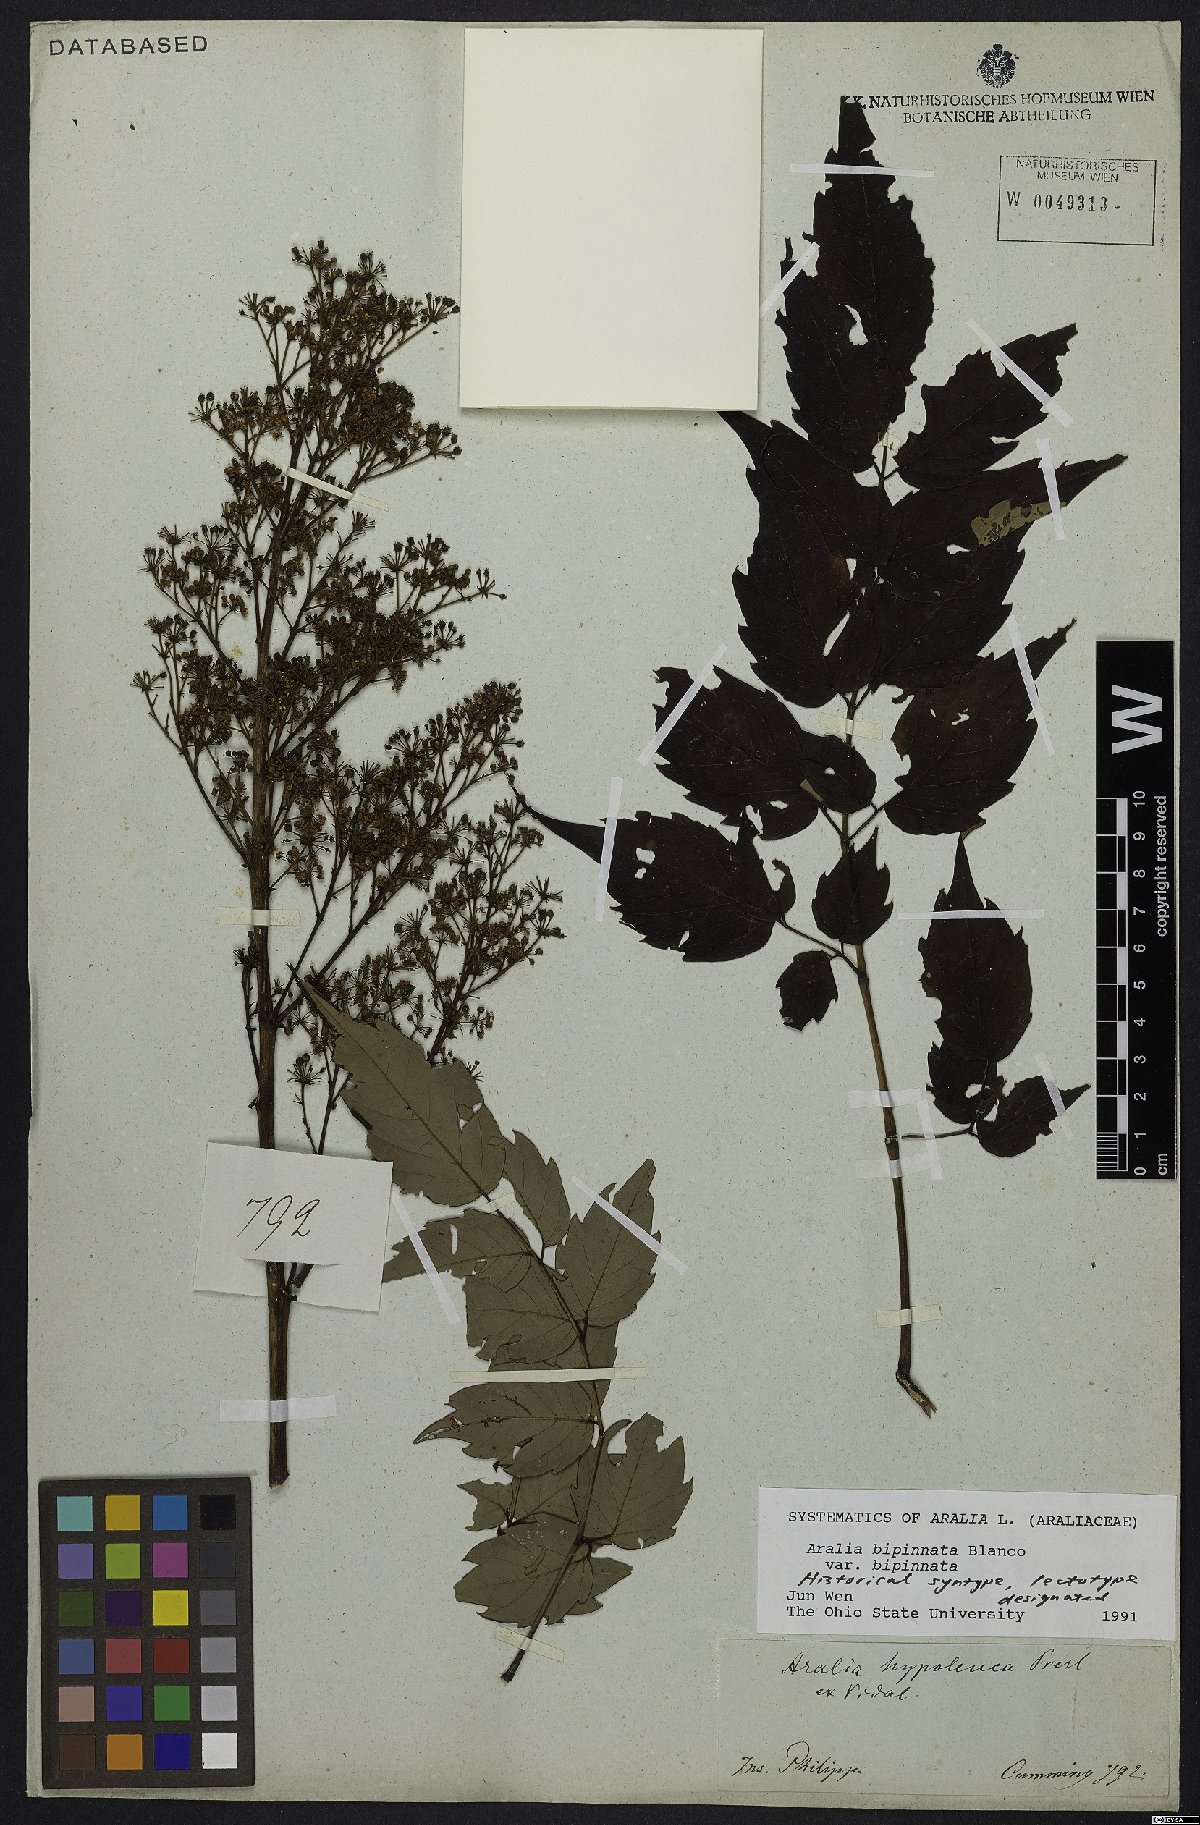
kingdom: Plantae
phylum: Tracheophyta
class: Magnoliopsida
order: Apiales
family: Araliaceae
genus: Aralia
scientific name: Aralia bipinnata
